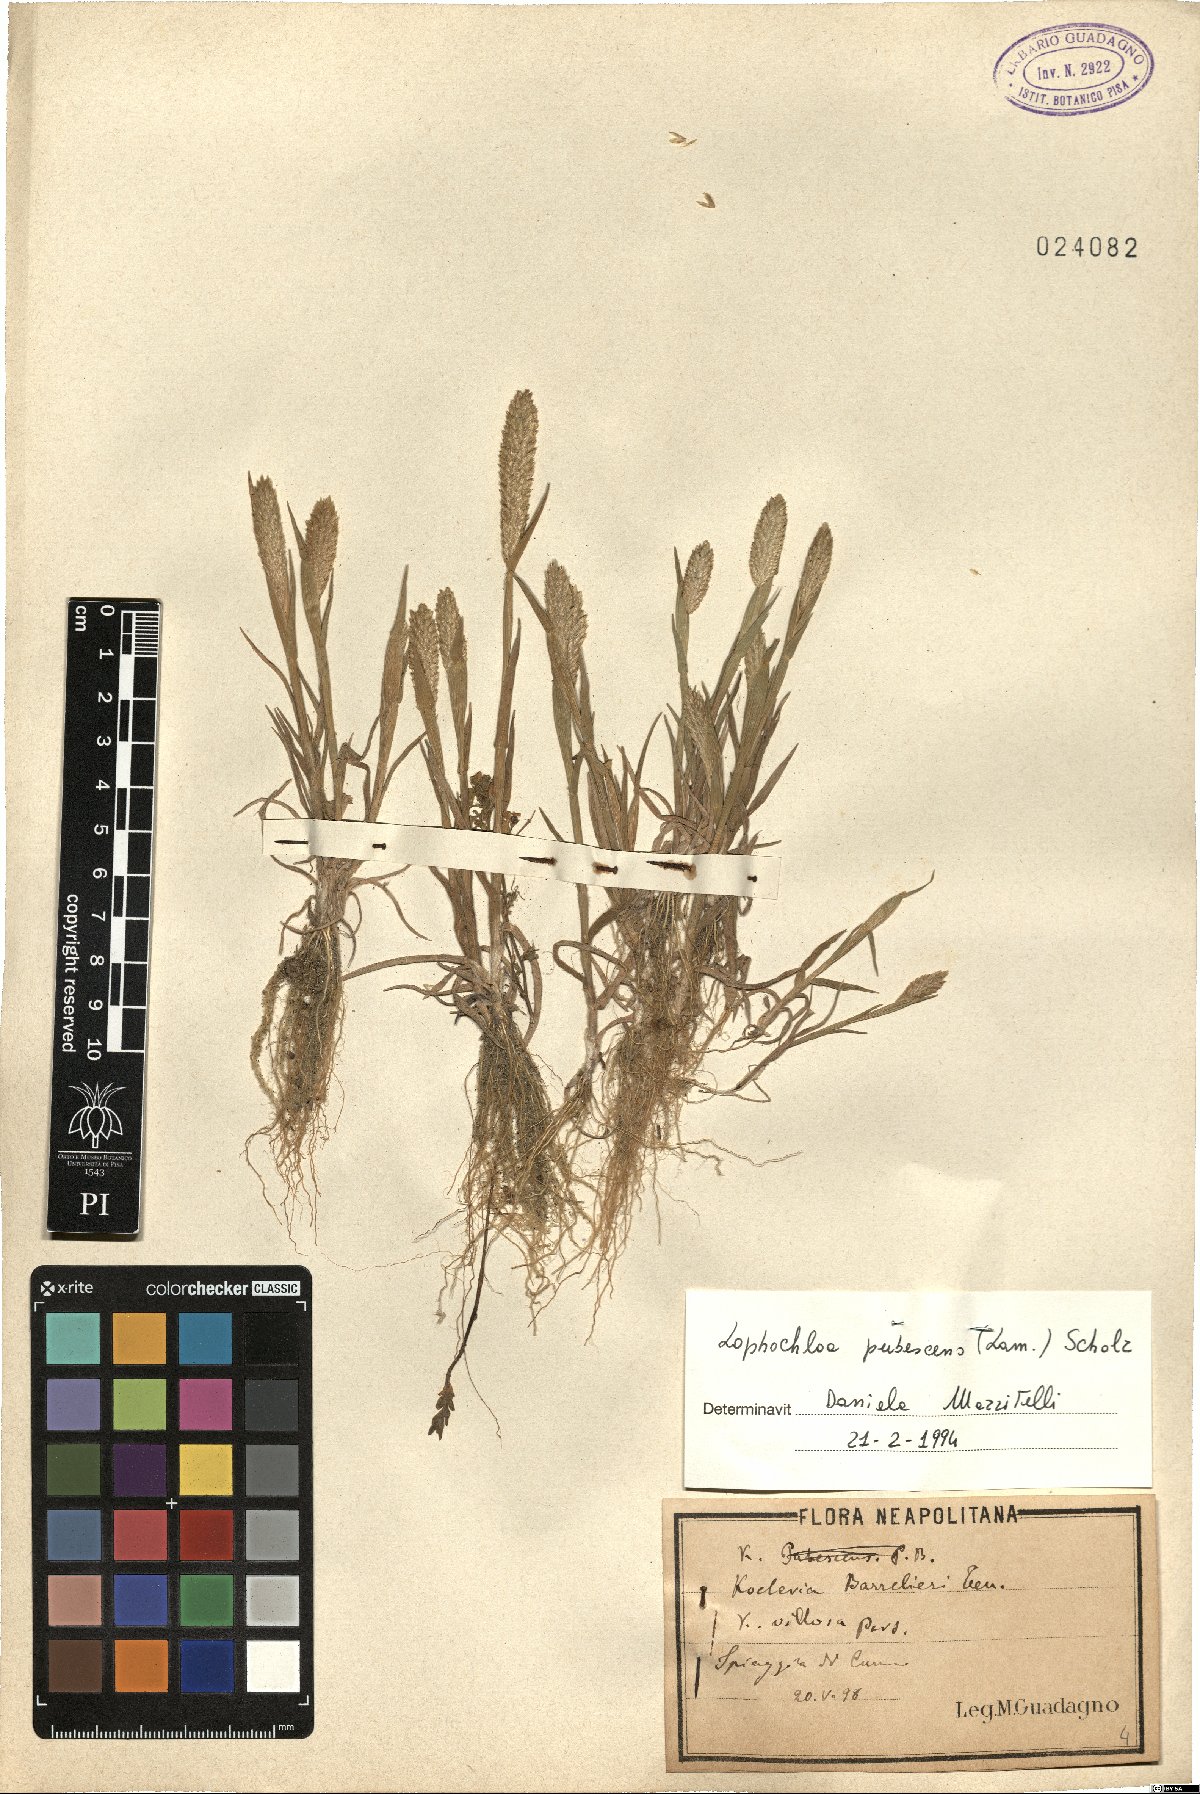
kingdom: Plantae
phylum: Tracheophyta
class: Liliopsida
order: Poales
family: Poaceae
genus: Rostraria
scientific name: Rostraria litorea
